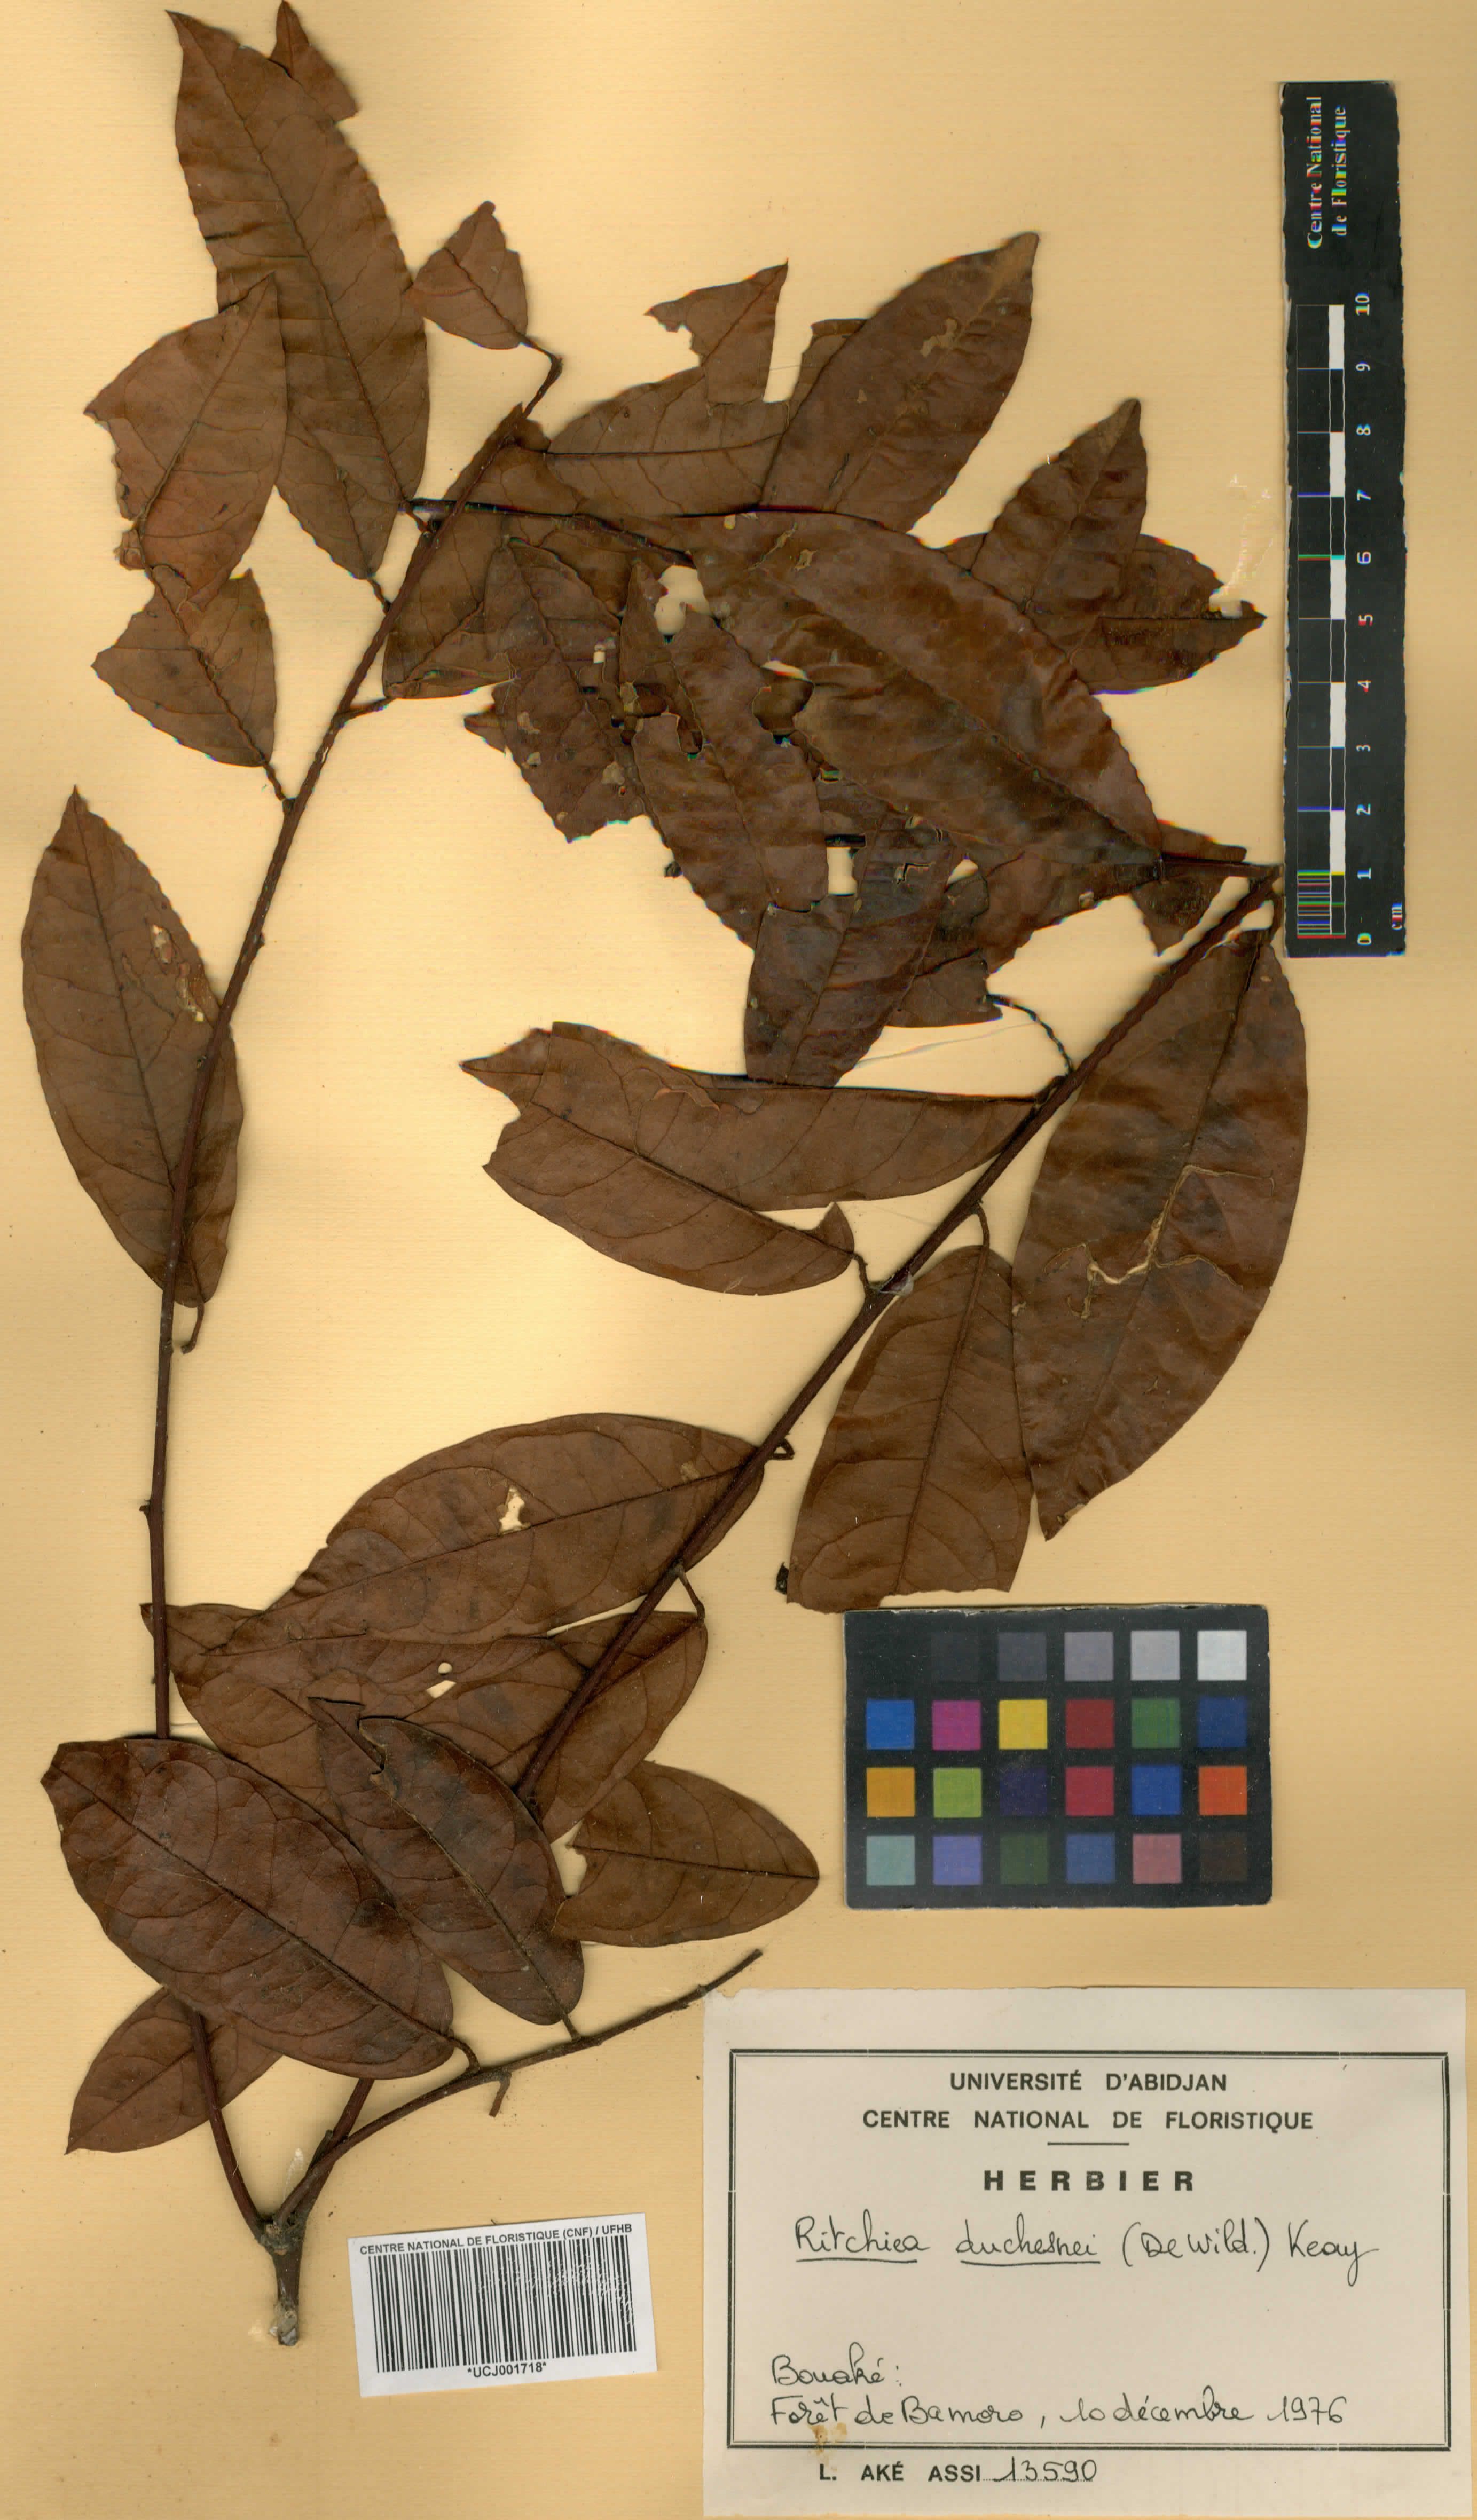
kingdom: Plantae
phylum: Tracheophyta
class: Magnoliopsida
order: Brassicales
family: Capparaceae
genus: Maerua
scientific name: Maerua duchesnei
